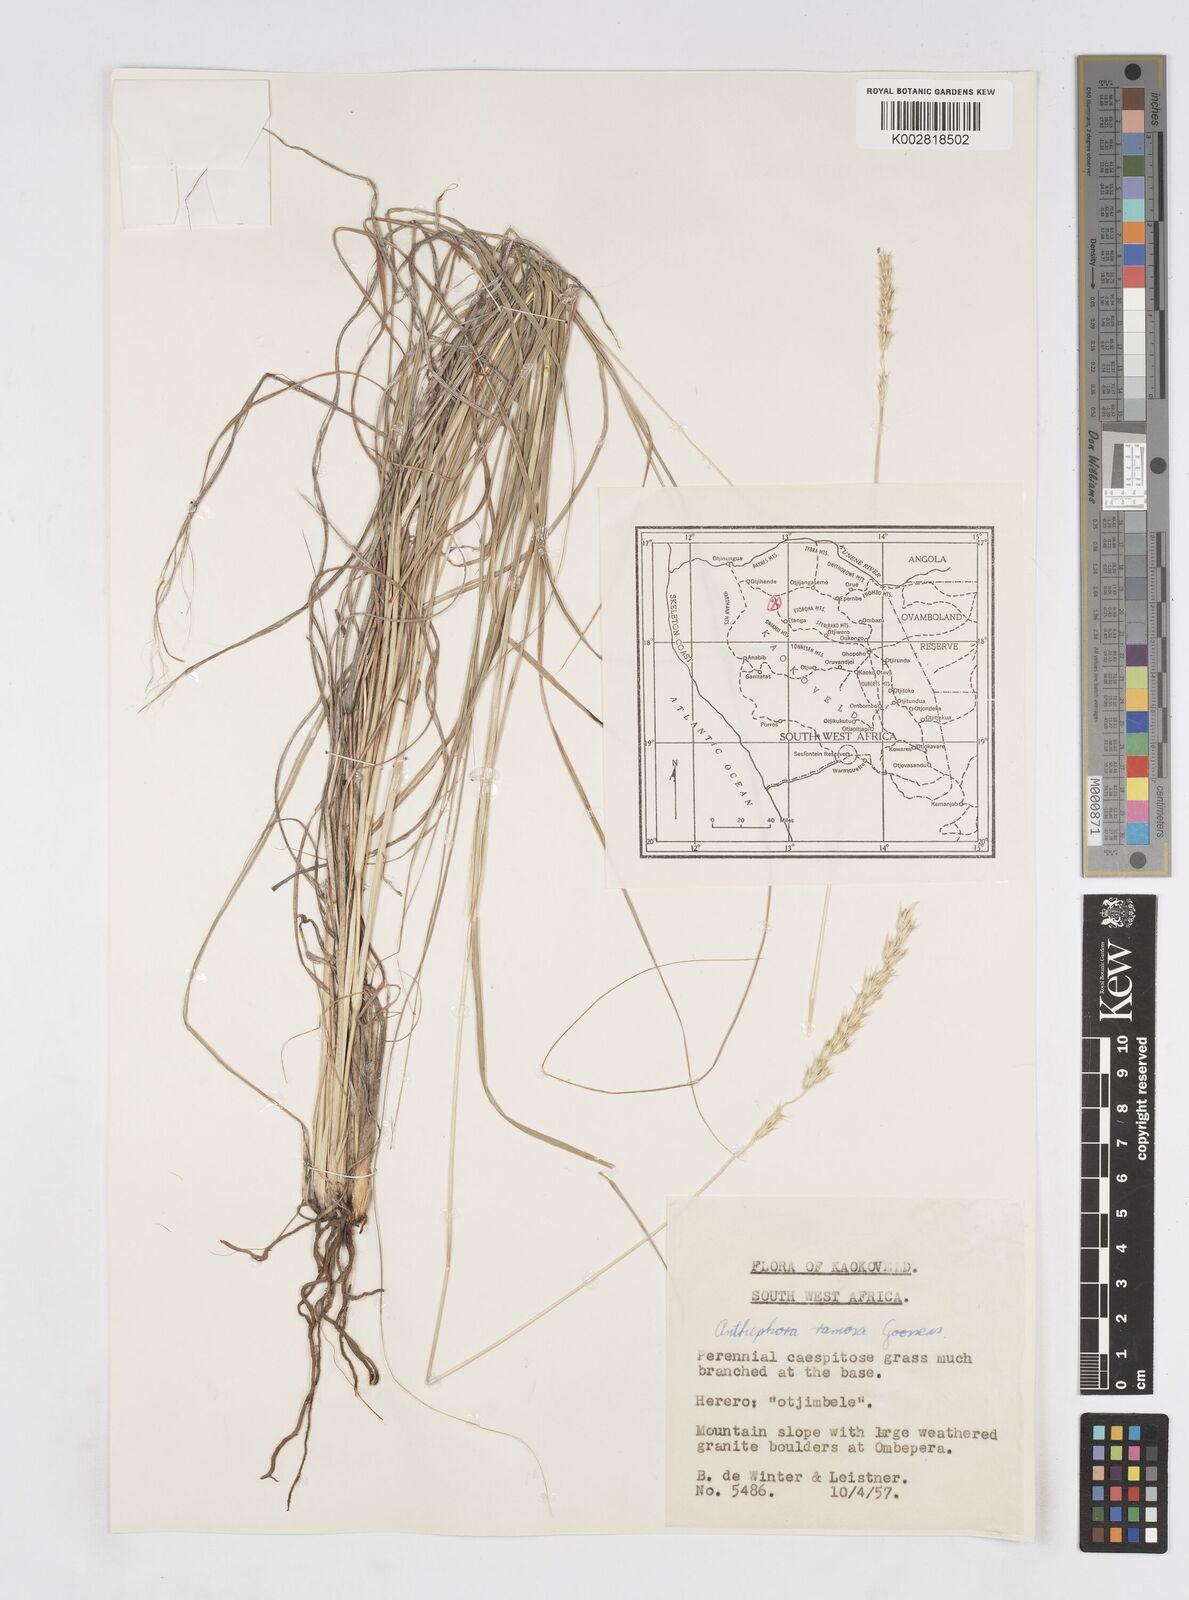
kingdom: Plantae
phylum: Tracheophyta
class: Liliopsida
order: Poales
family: Poaceae
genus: Anthephora
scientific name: Anthephora pubescens
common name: Wool grass
